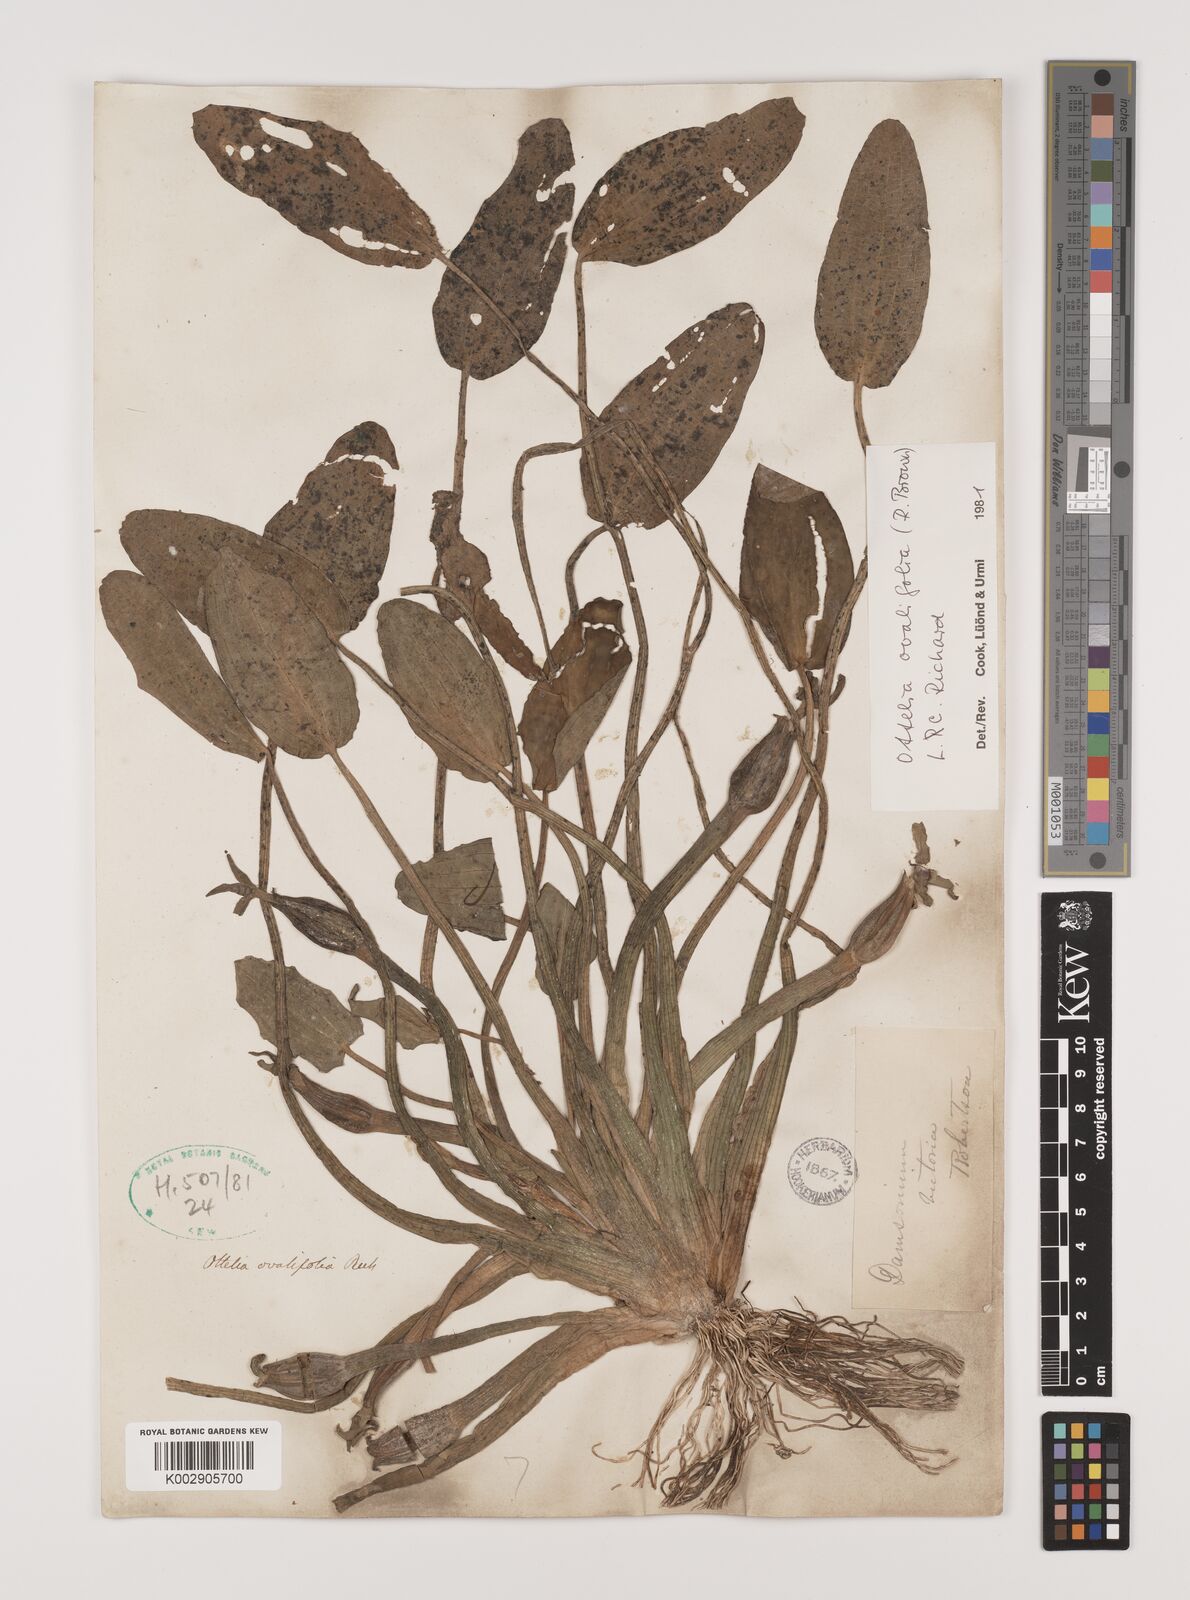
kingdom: Plantae
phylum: Tracheophyta
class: Liliopsida
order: Alismatales
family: Hydrocharitaceae
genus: Ottelia
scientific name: Ottelia ovalifolia
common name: Swamp-lily
